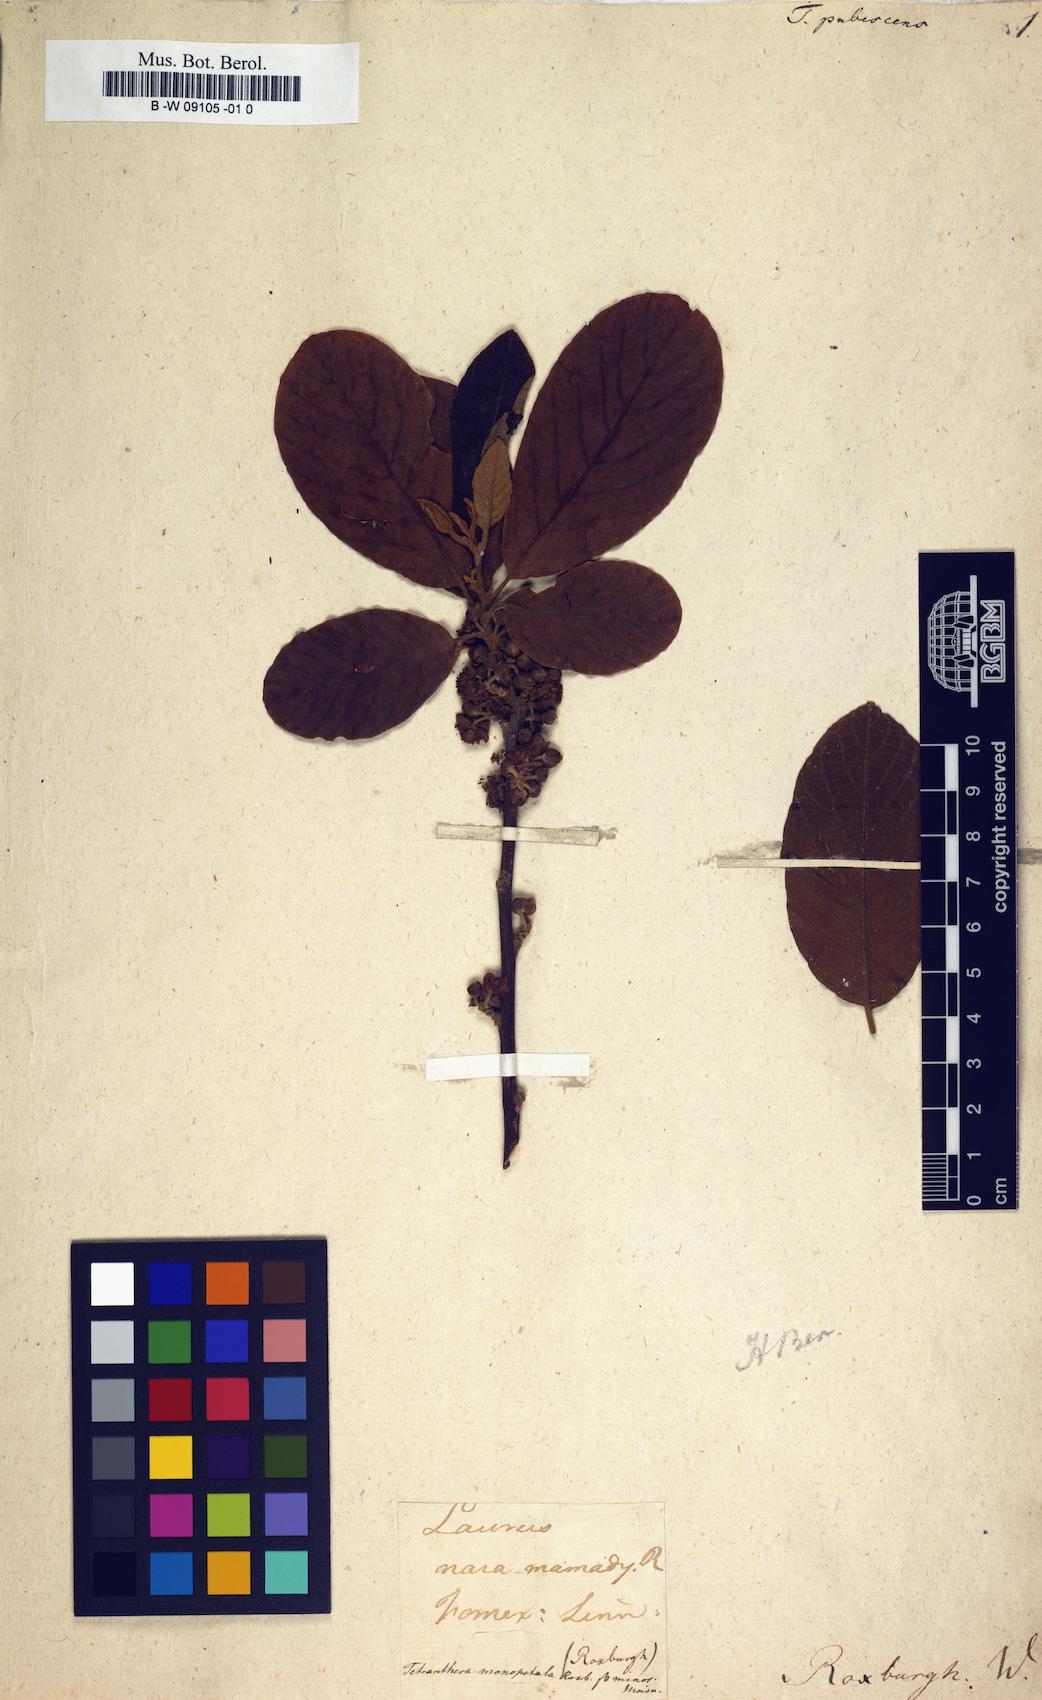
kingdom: Plantae
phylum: Tracheophyta
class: Magnoliopsida
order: Laurales
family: Lauraceae
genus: Litsea
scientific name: Litsea monopetala
